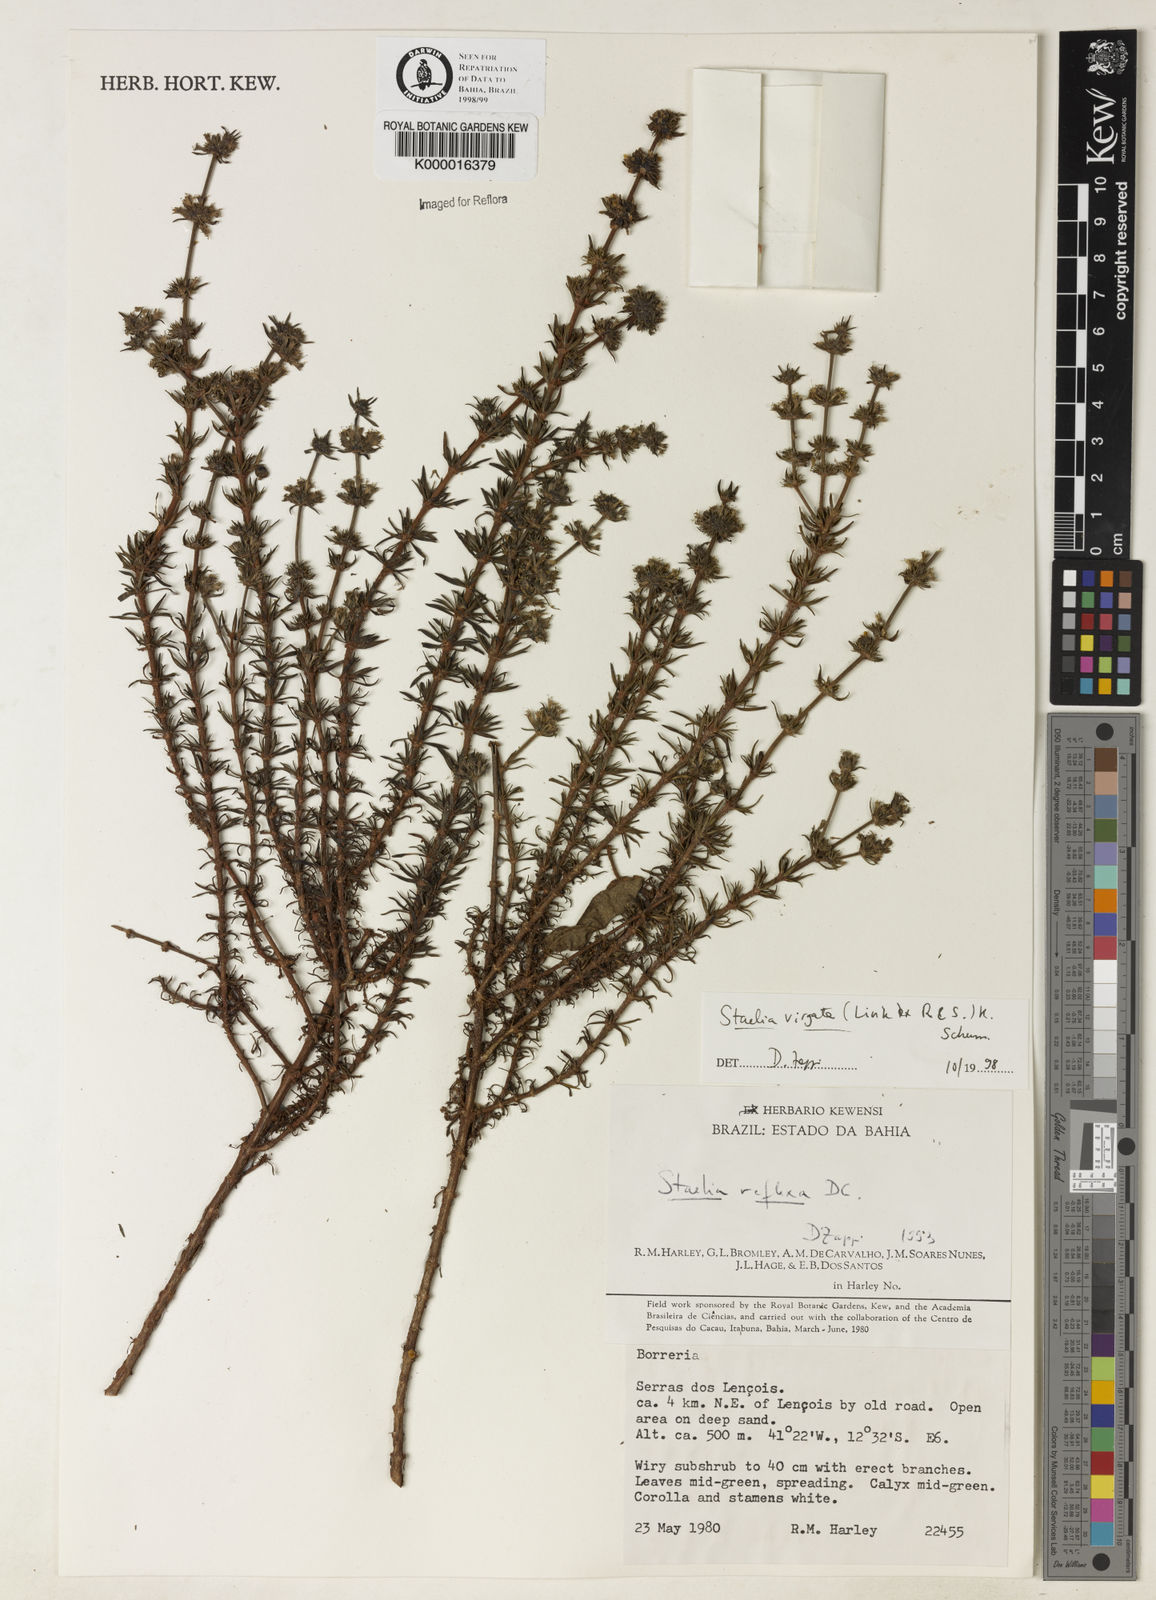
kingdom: Plantae
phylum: Tracheophyta
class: Magnoliopsida
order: Gentianales
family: Rubiaceae
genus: Staelia
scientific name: Staelia virgata
